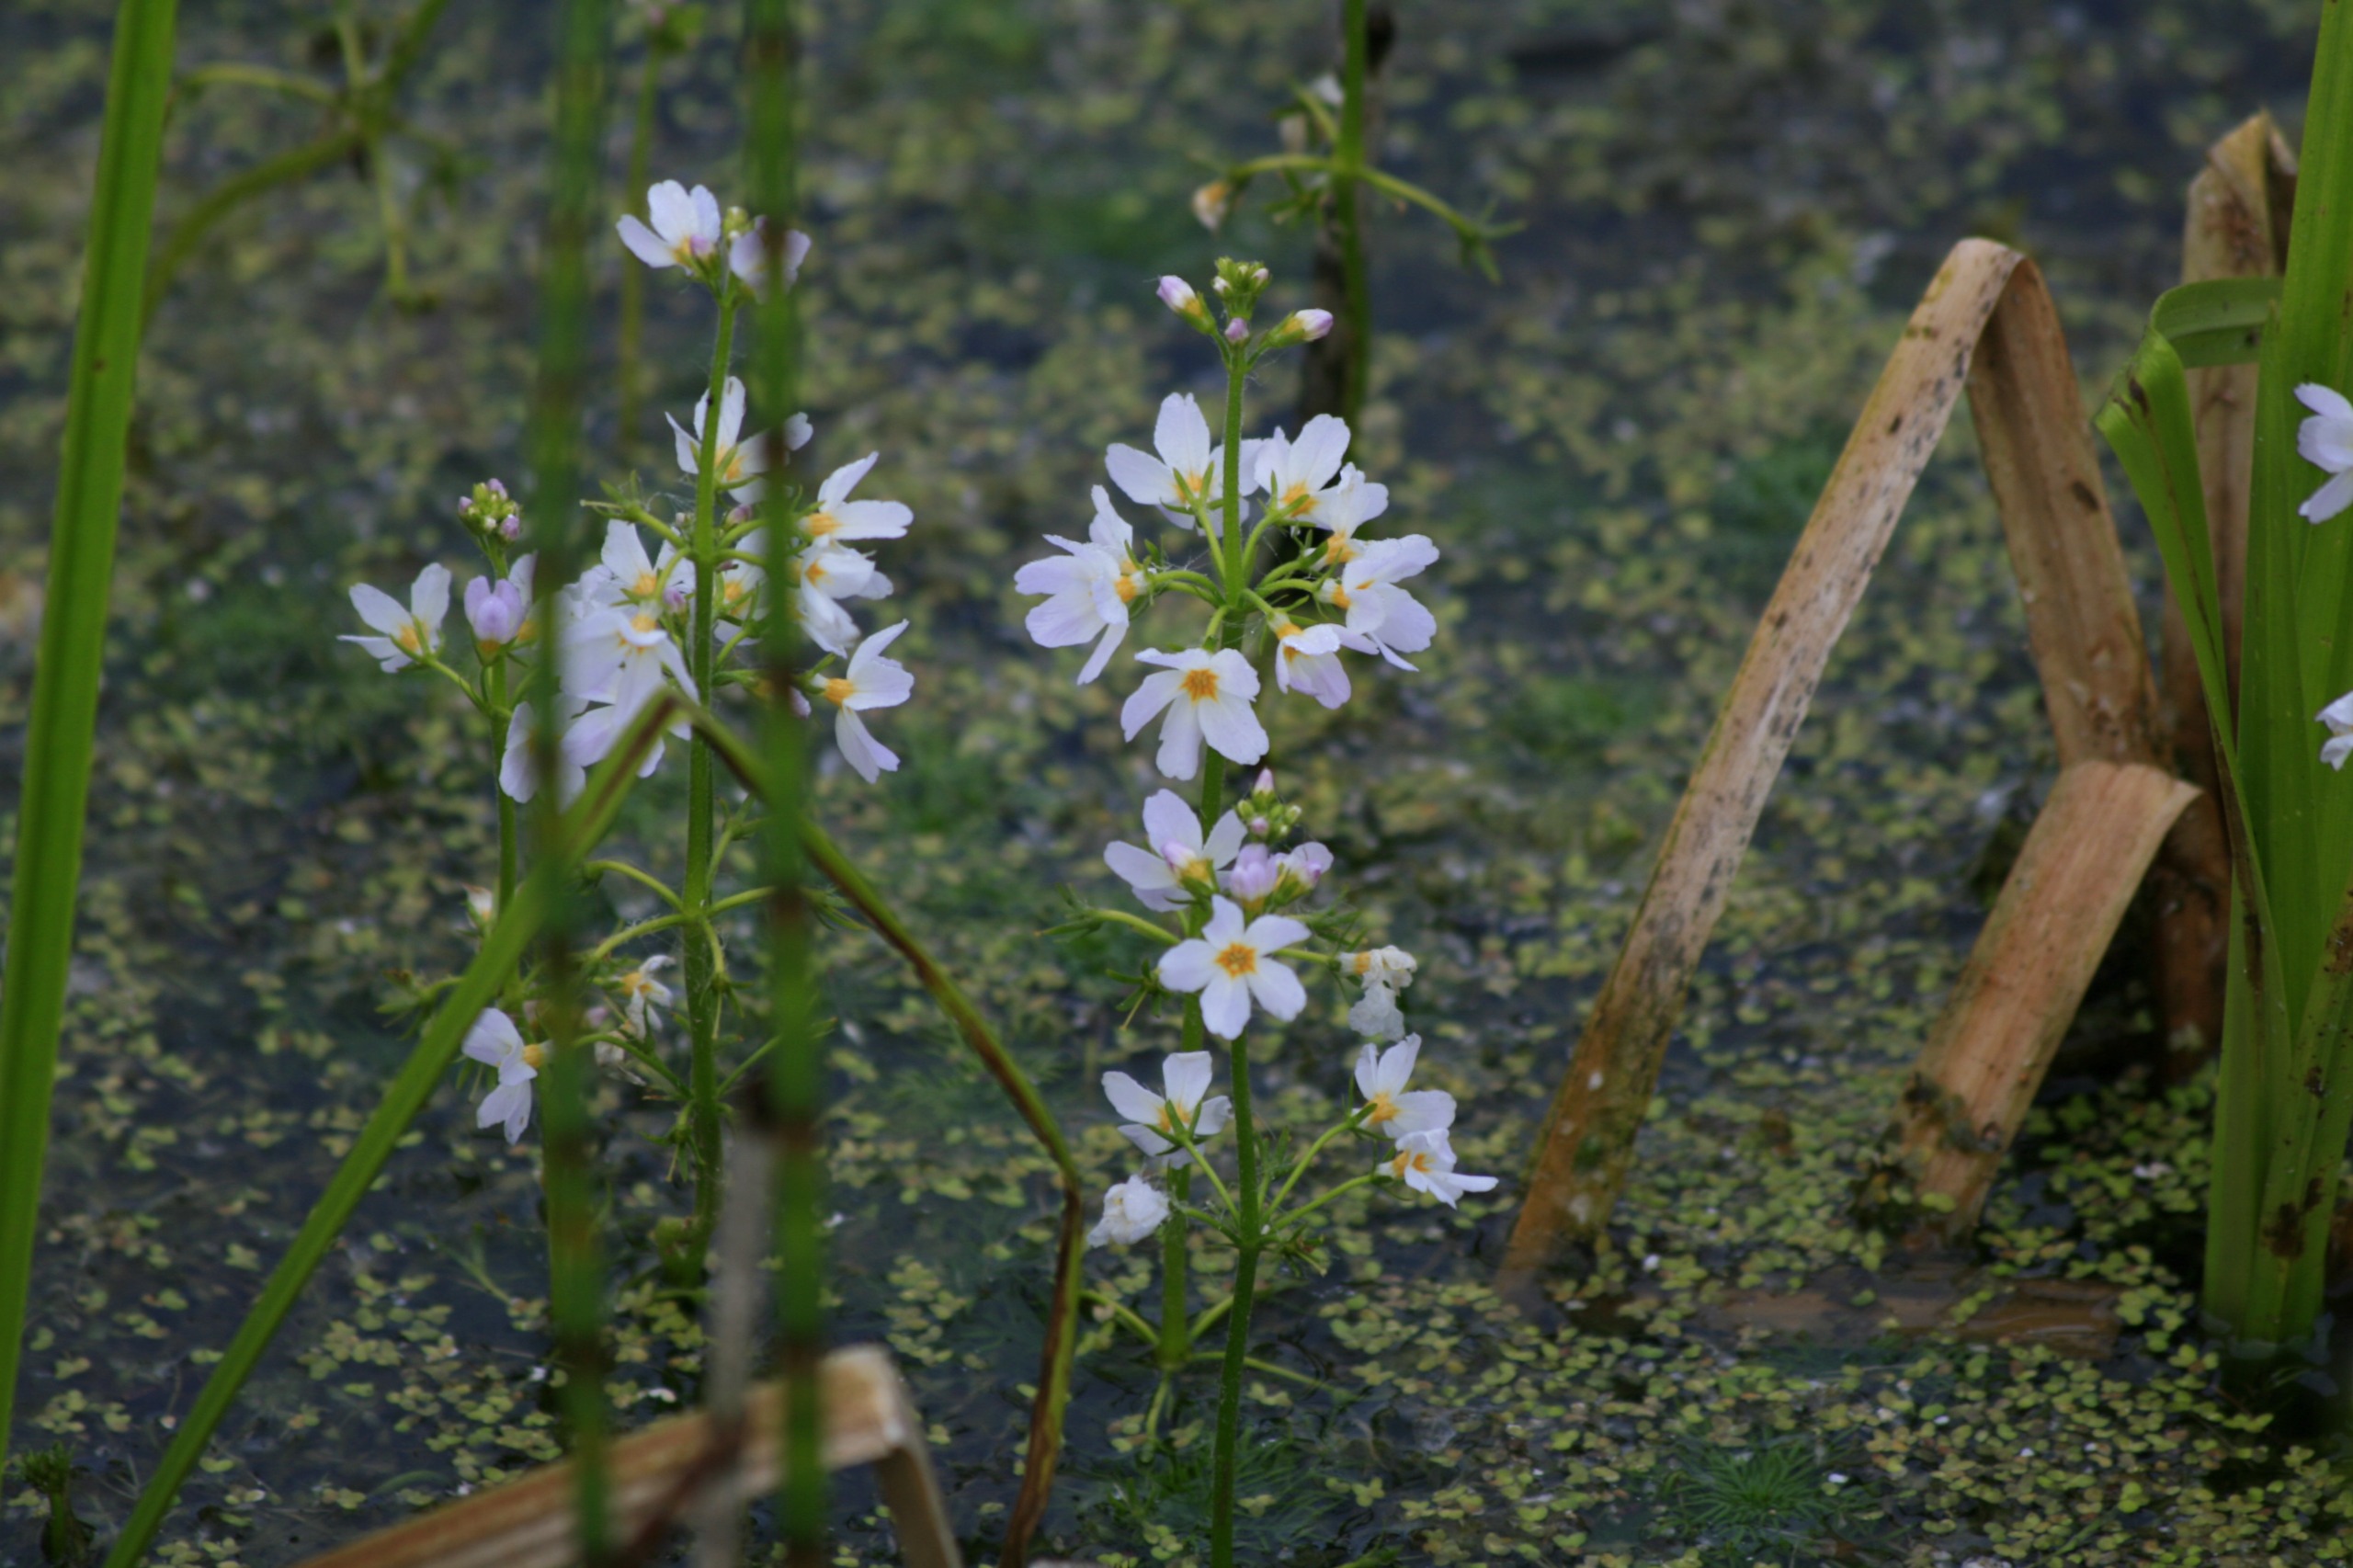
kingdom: Plantae
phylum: Tracheophyta
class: Magnoliopsida
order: Ericales
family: Primulaceae
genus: Hottonia
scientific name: Hottonia palustris
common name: Vandrøllike
